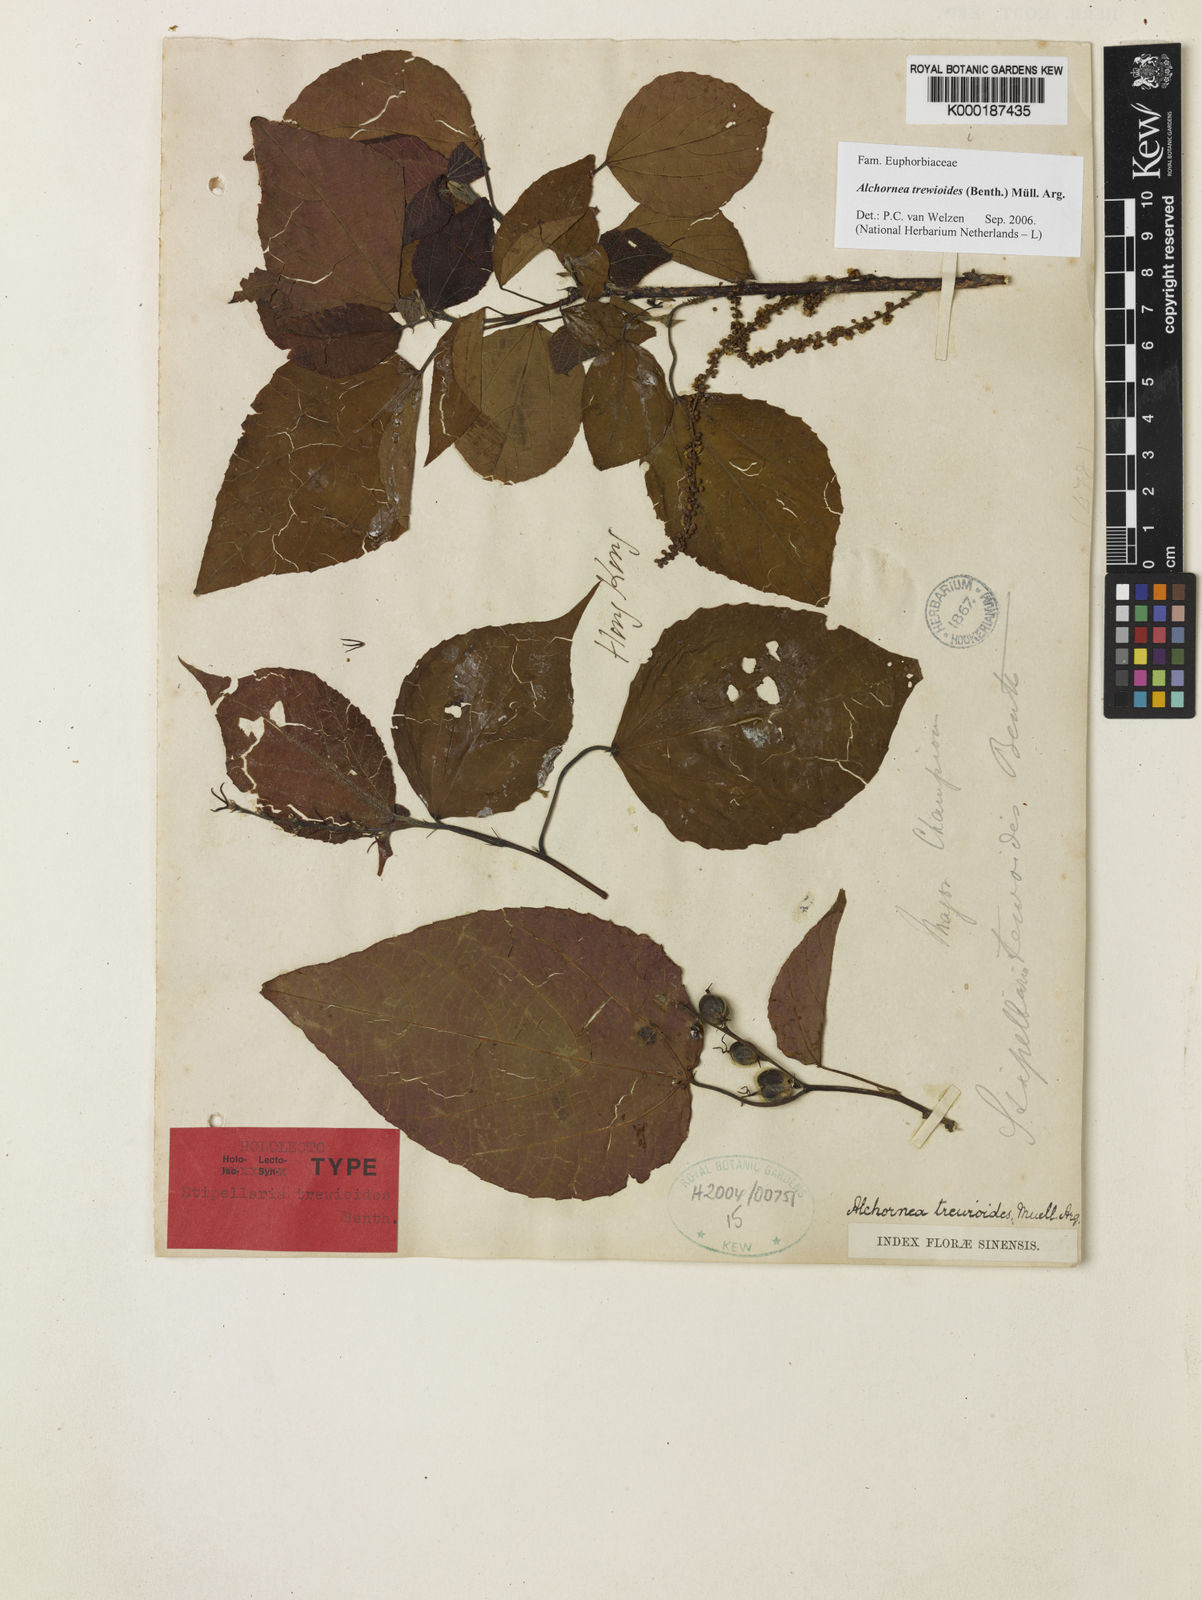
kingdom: Plantae
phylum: Tracheophyta
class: Magnoliopsida
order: Malpighiales
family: Euphorbiaceae
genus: Alchornea
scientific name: Alchornea
